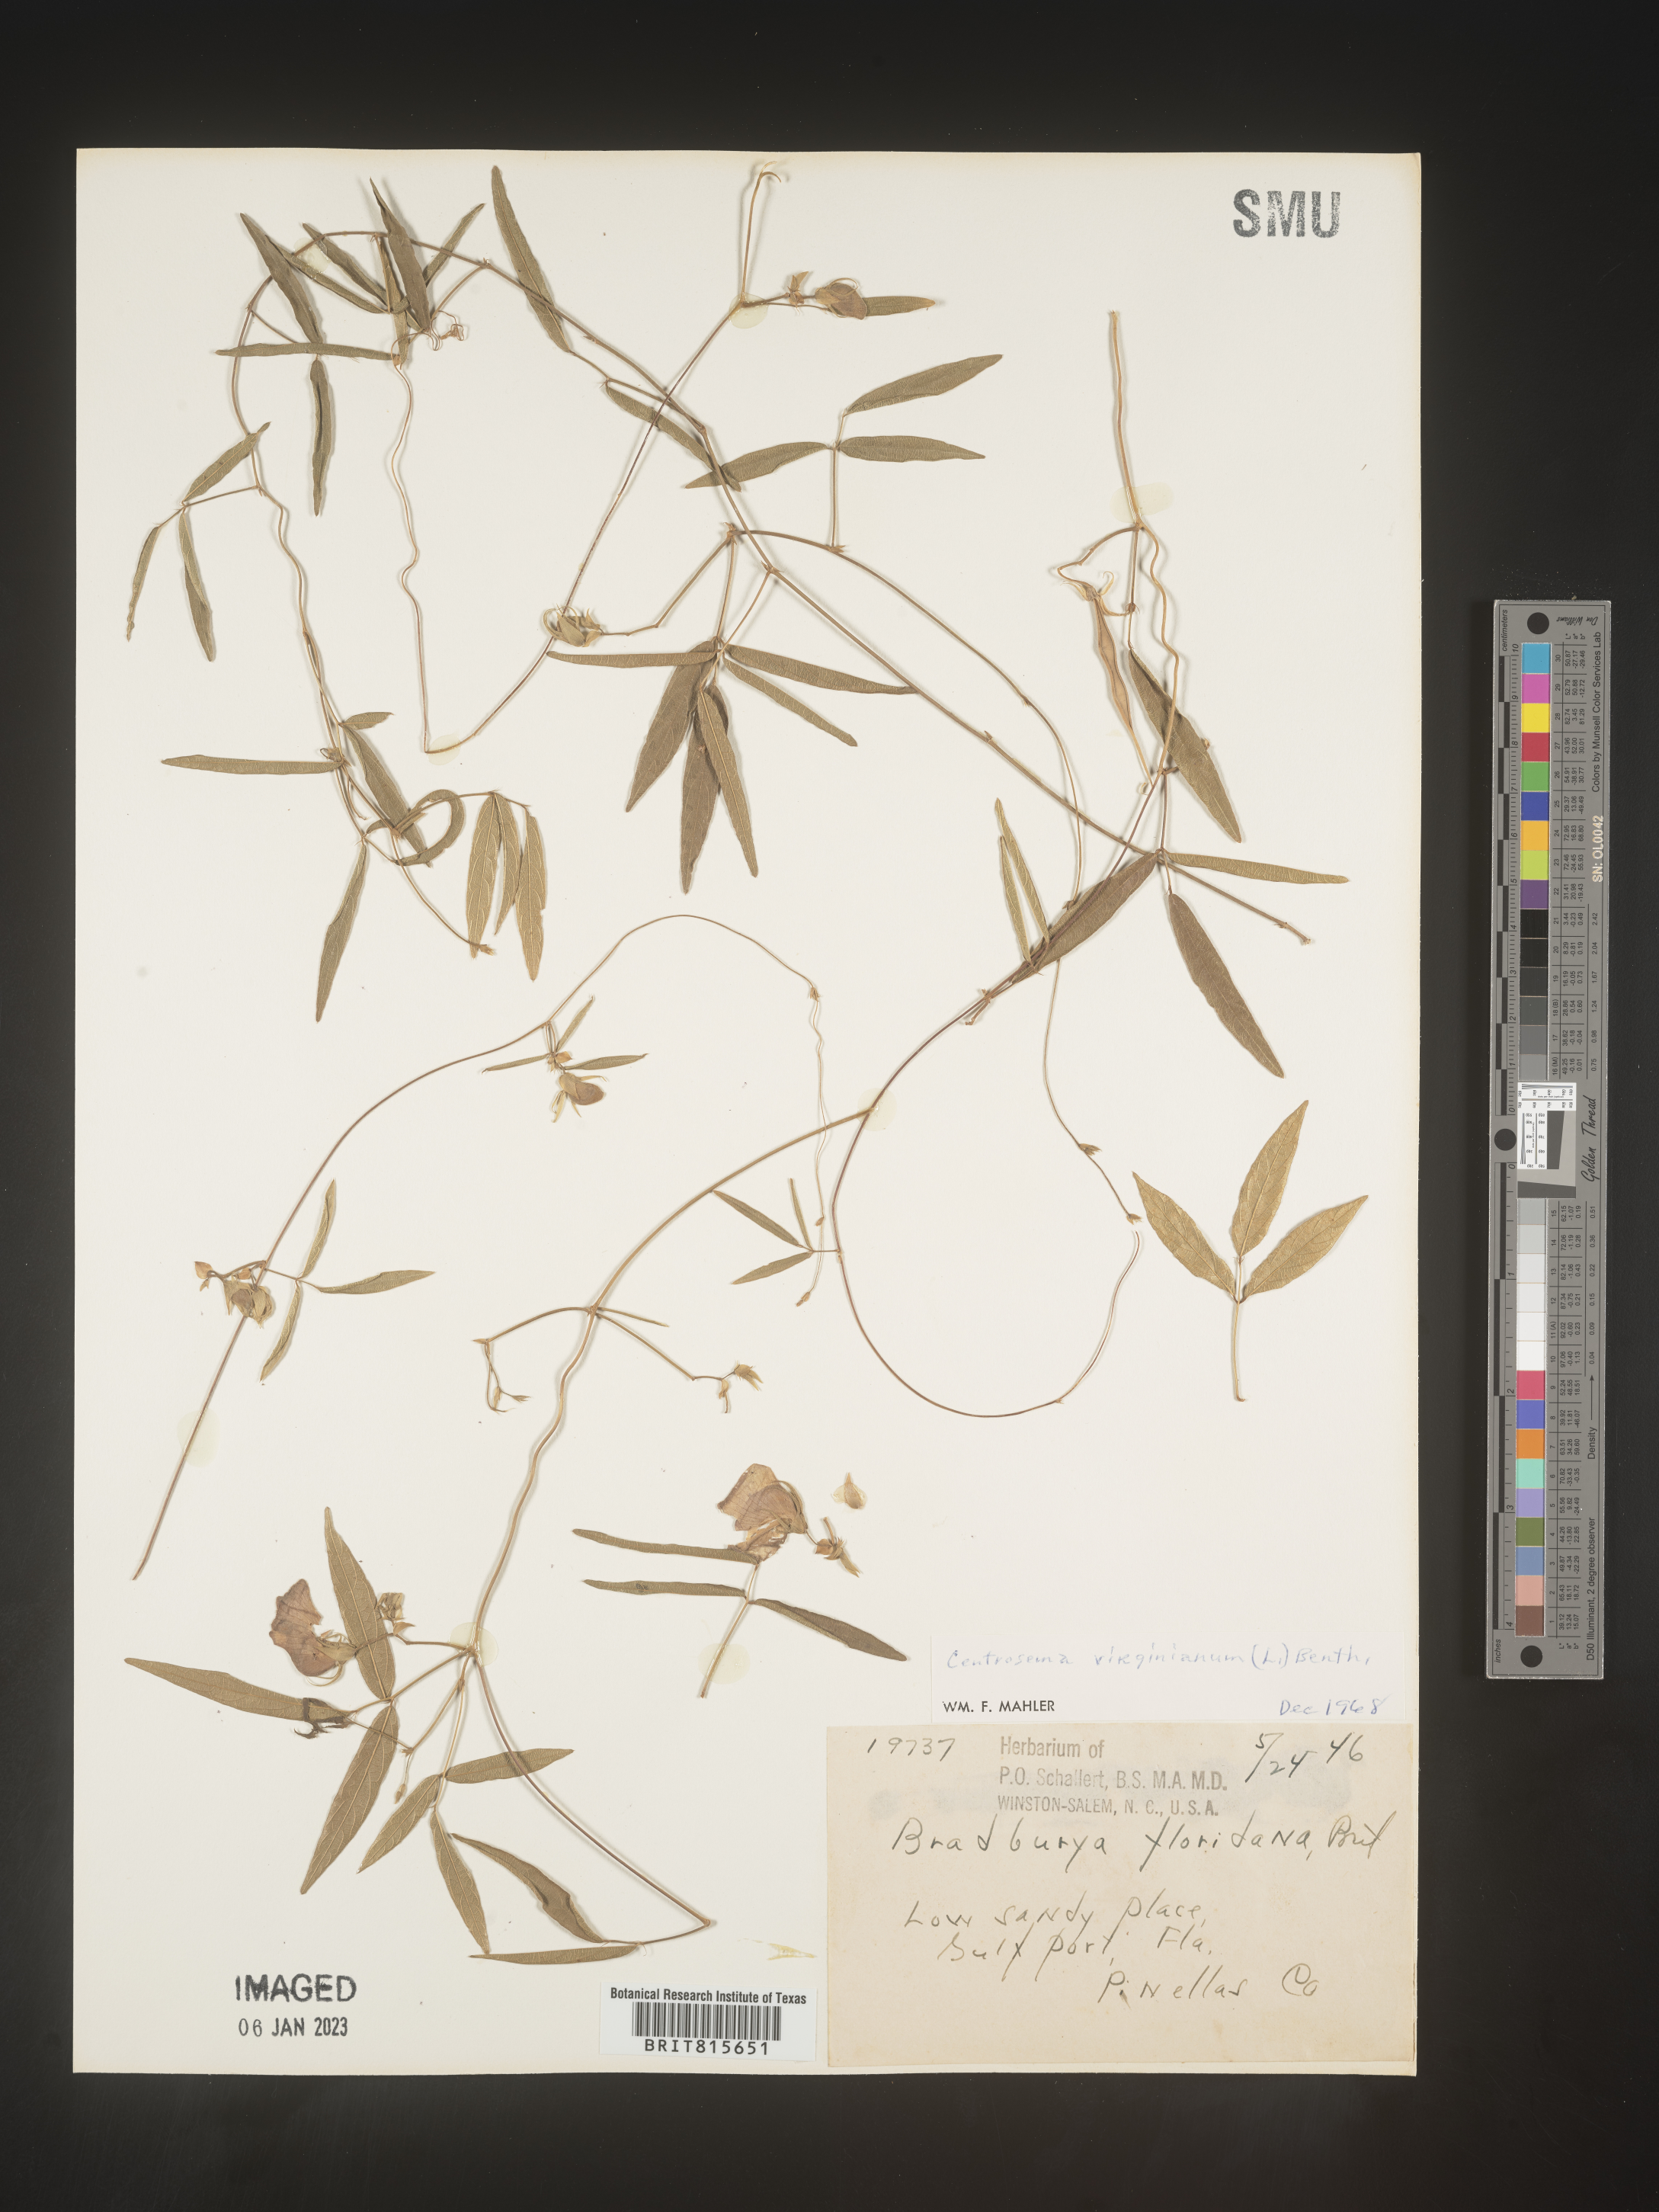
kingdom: Plantae
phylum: Tracheophyta
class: Magnoliopsida
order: Fabales
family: Fabaceae
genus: Centrosema
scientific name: Centrosema virginianum
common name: Butterfly-pea
